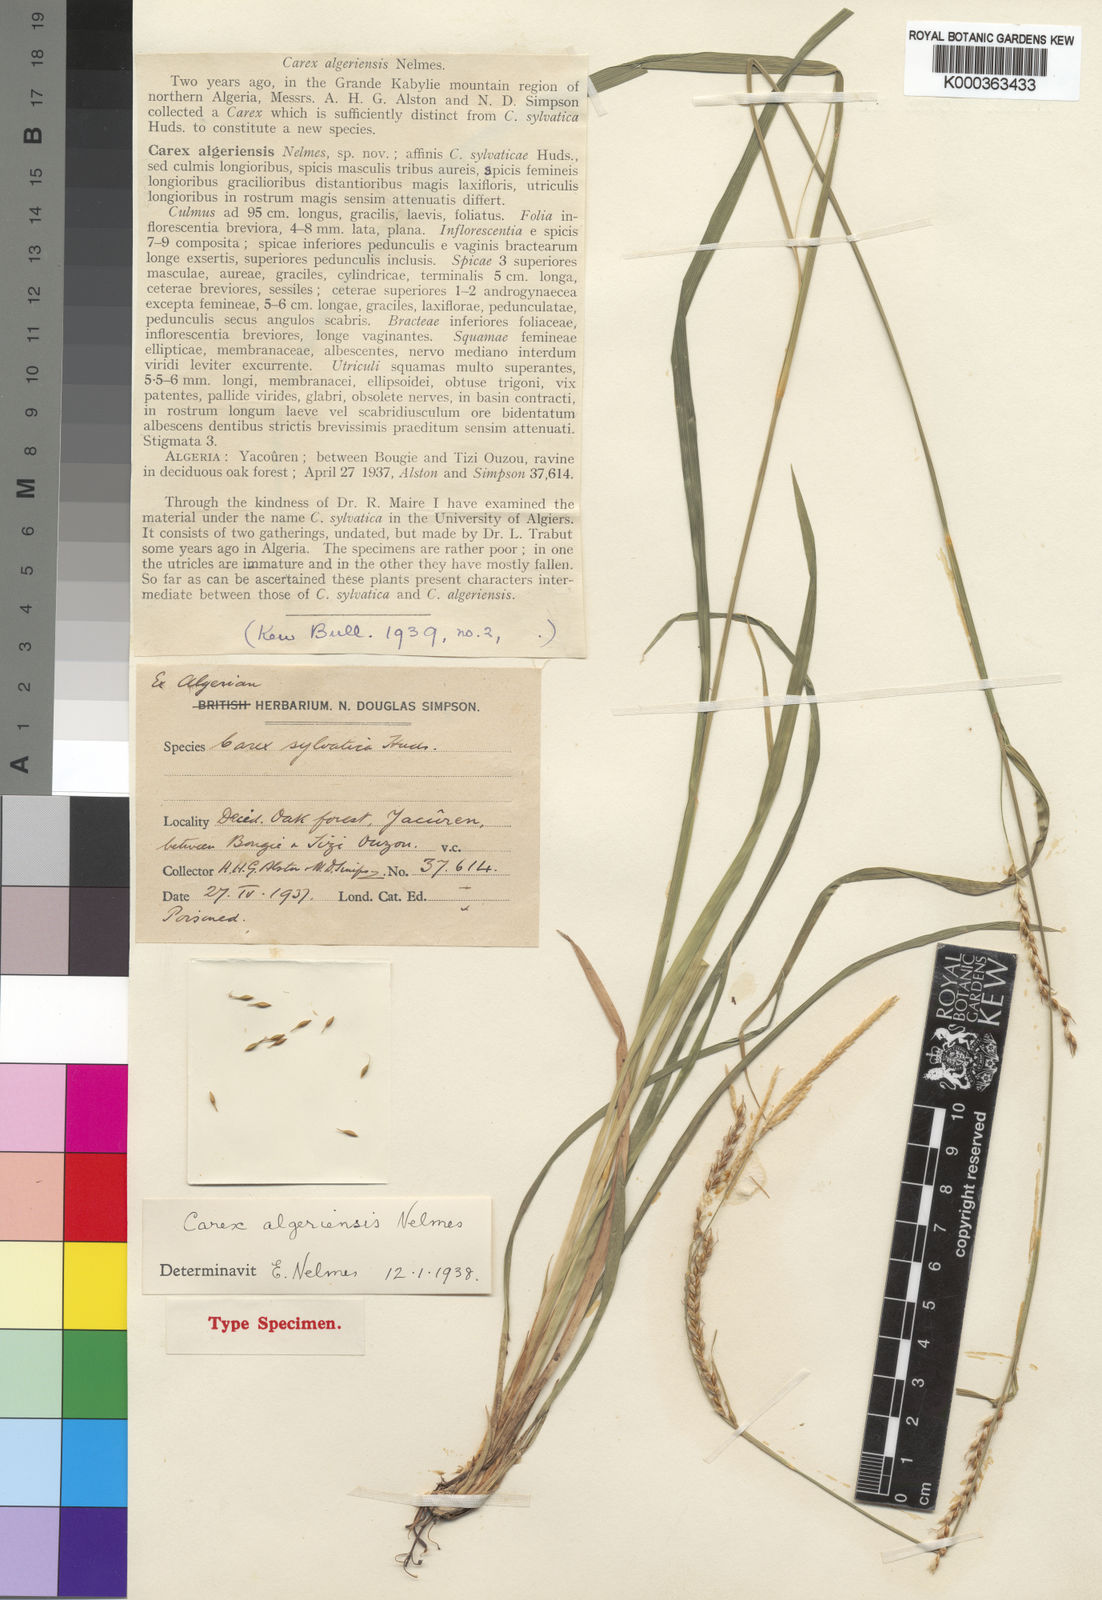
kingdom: Plantae
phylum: Tracheophyta
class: Liliopsida
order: Poales
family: Cyperaceae
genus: Carex
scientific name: Carex paui
